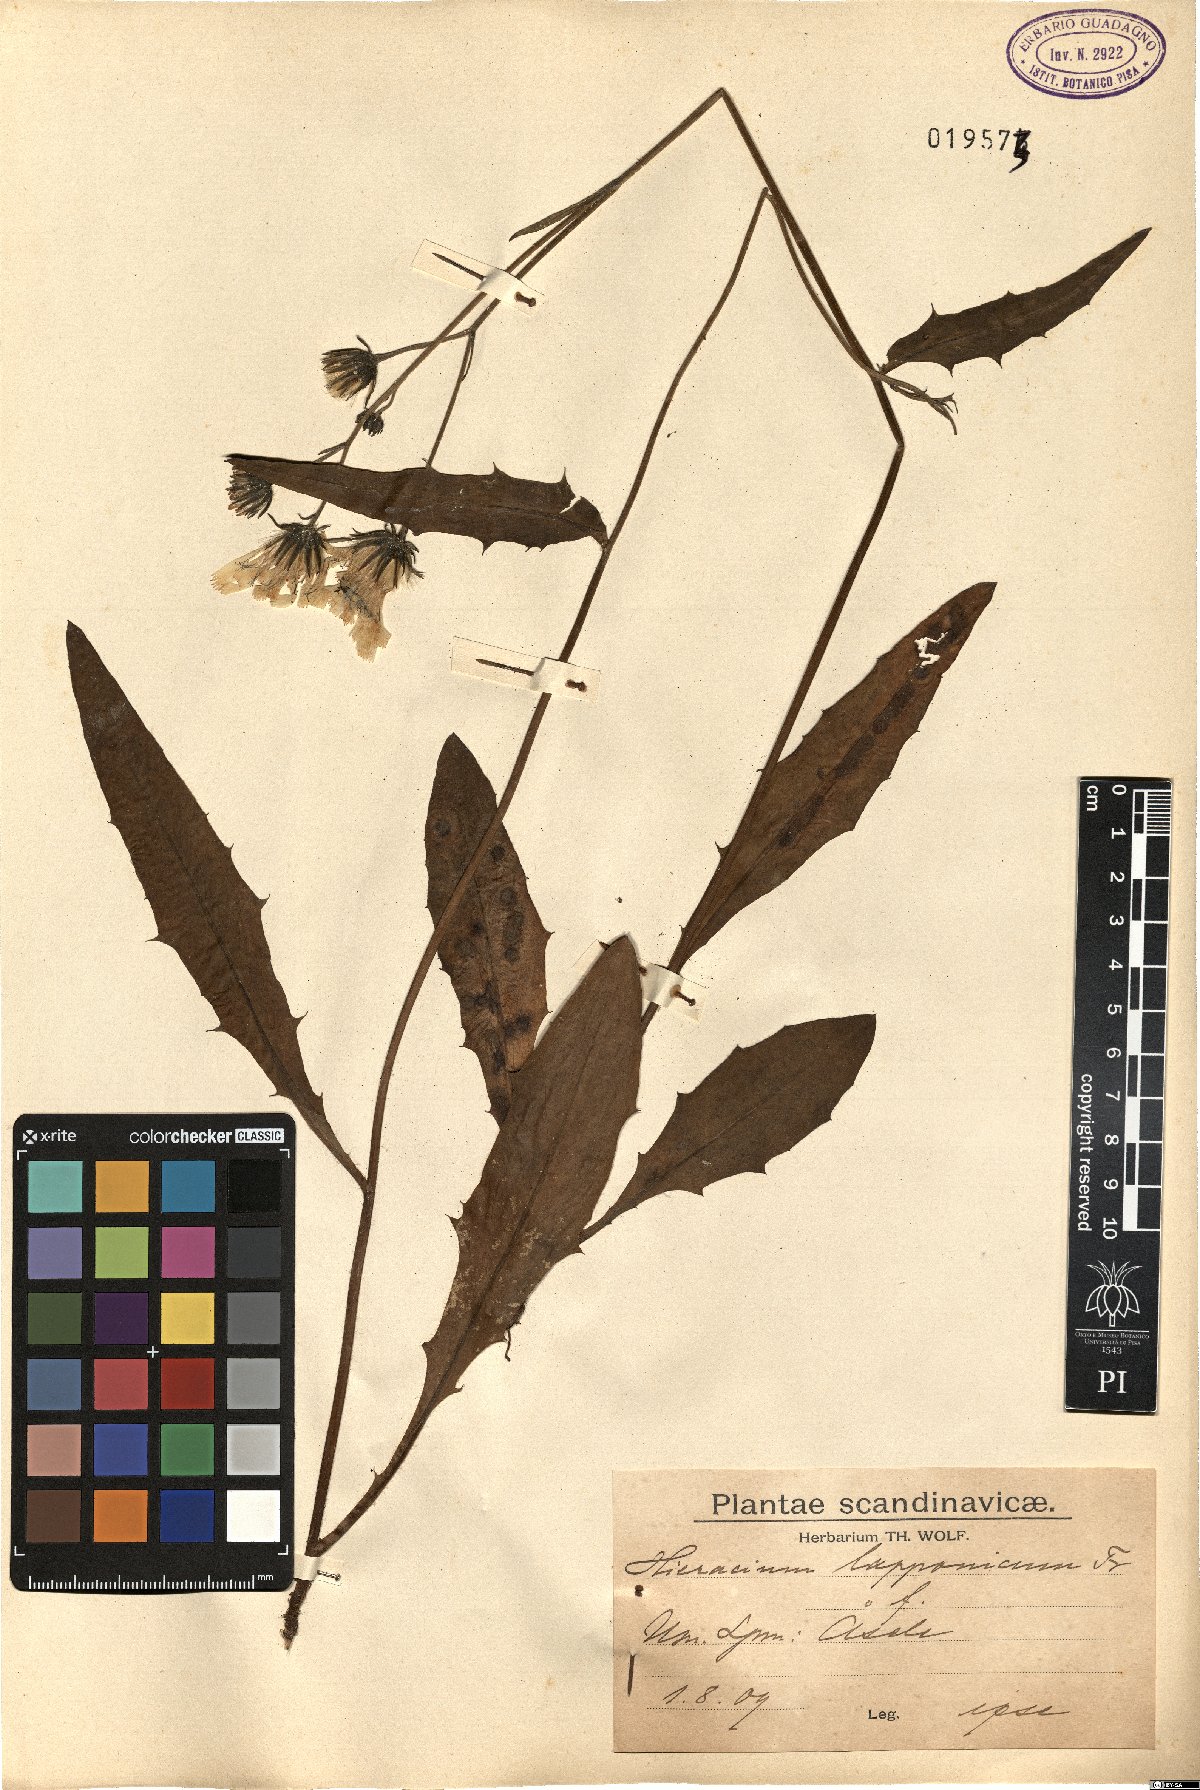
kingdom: Plantae
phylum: Tracheophyta
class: Magnoliopsida
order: Asterales
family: Asteraceae
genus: Hieracium
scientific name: Hieracium lapponicum
